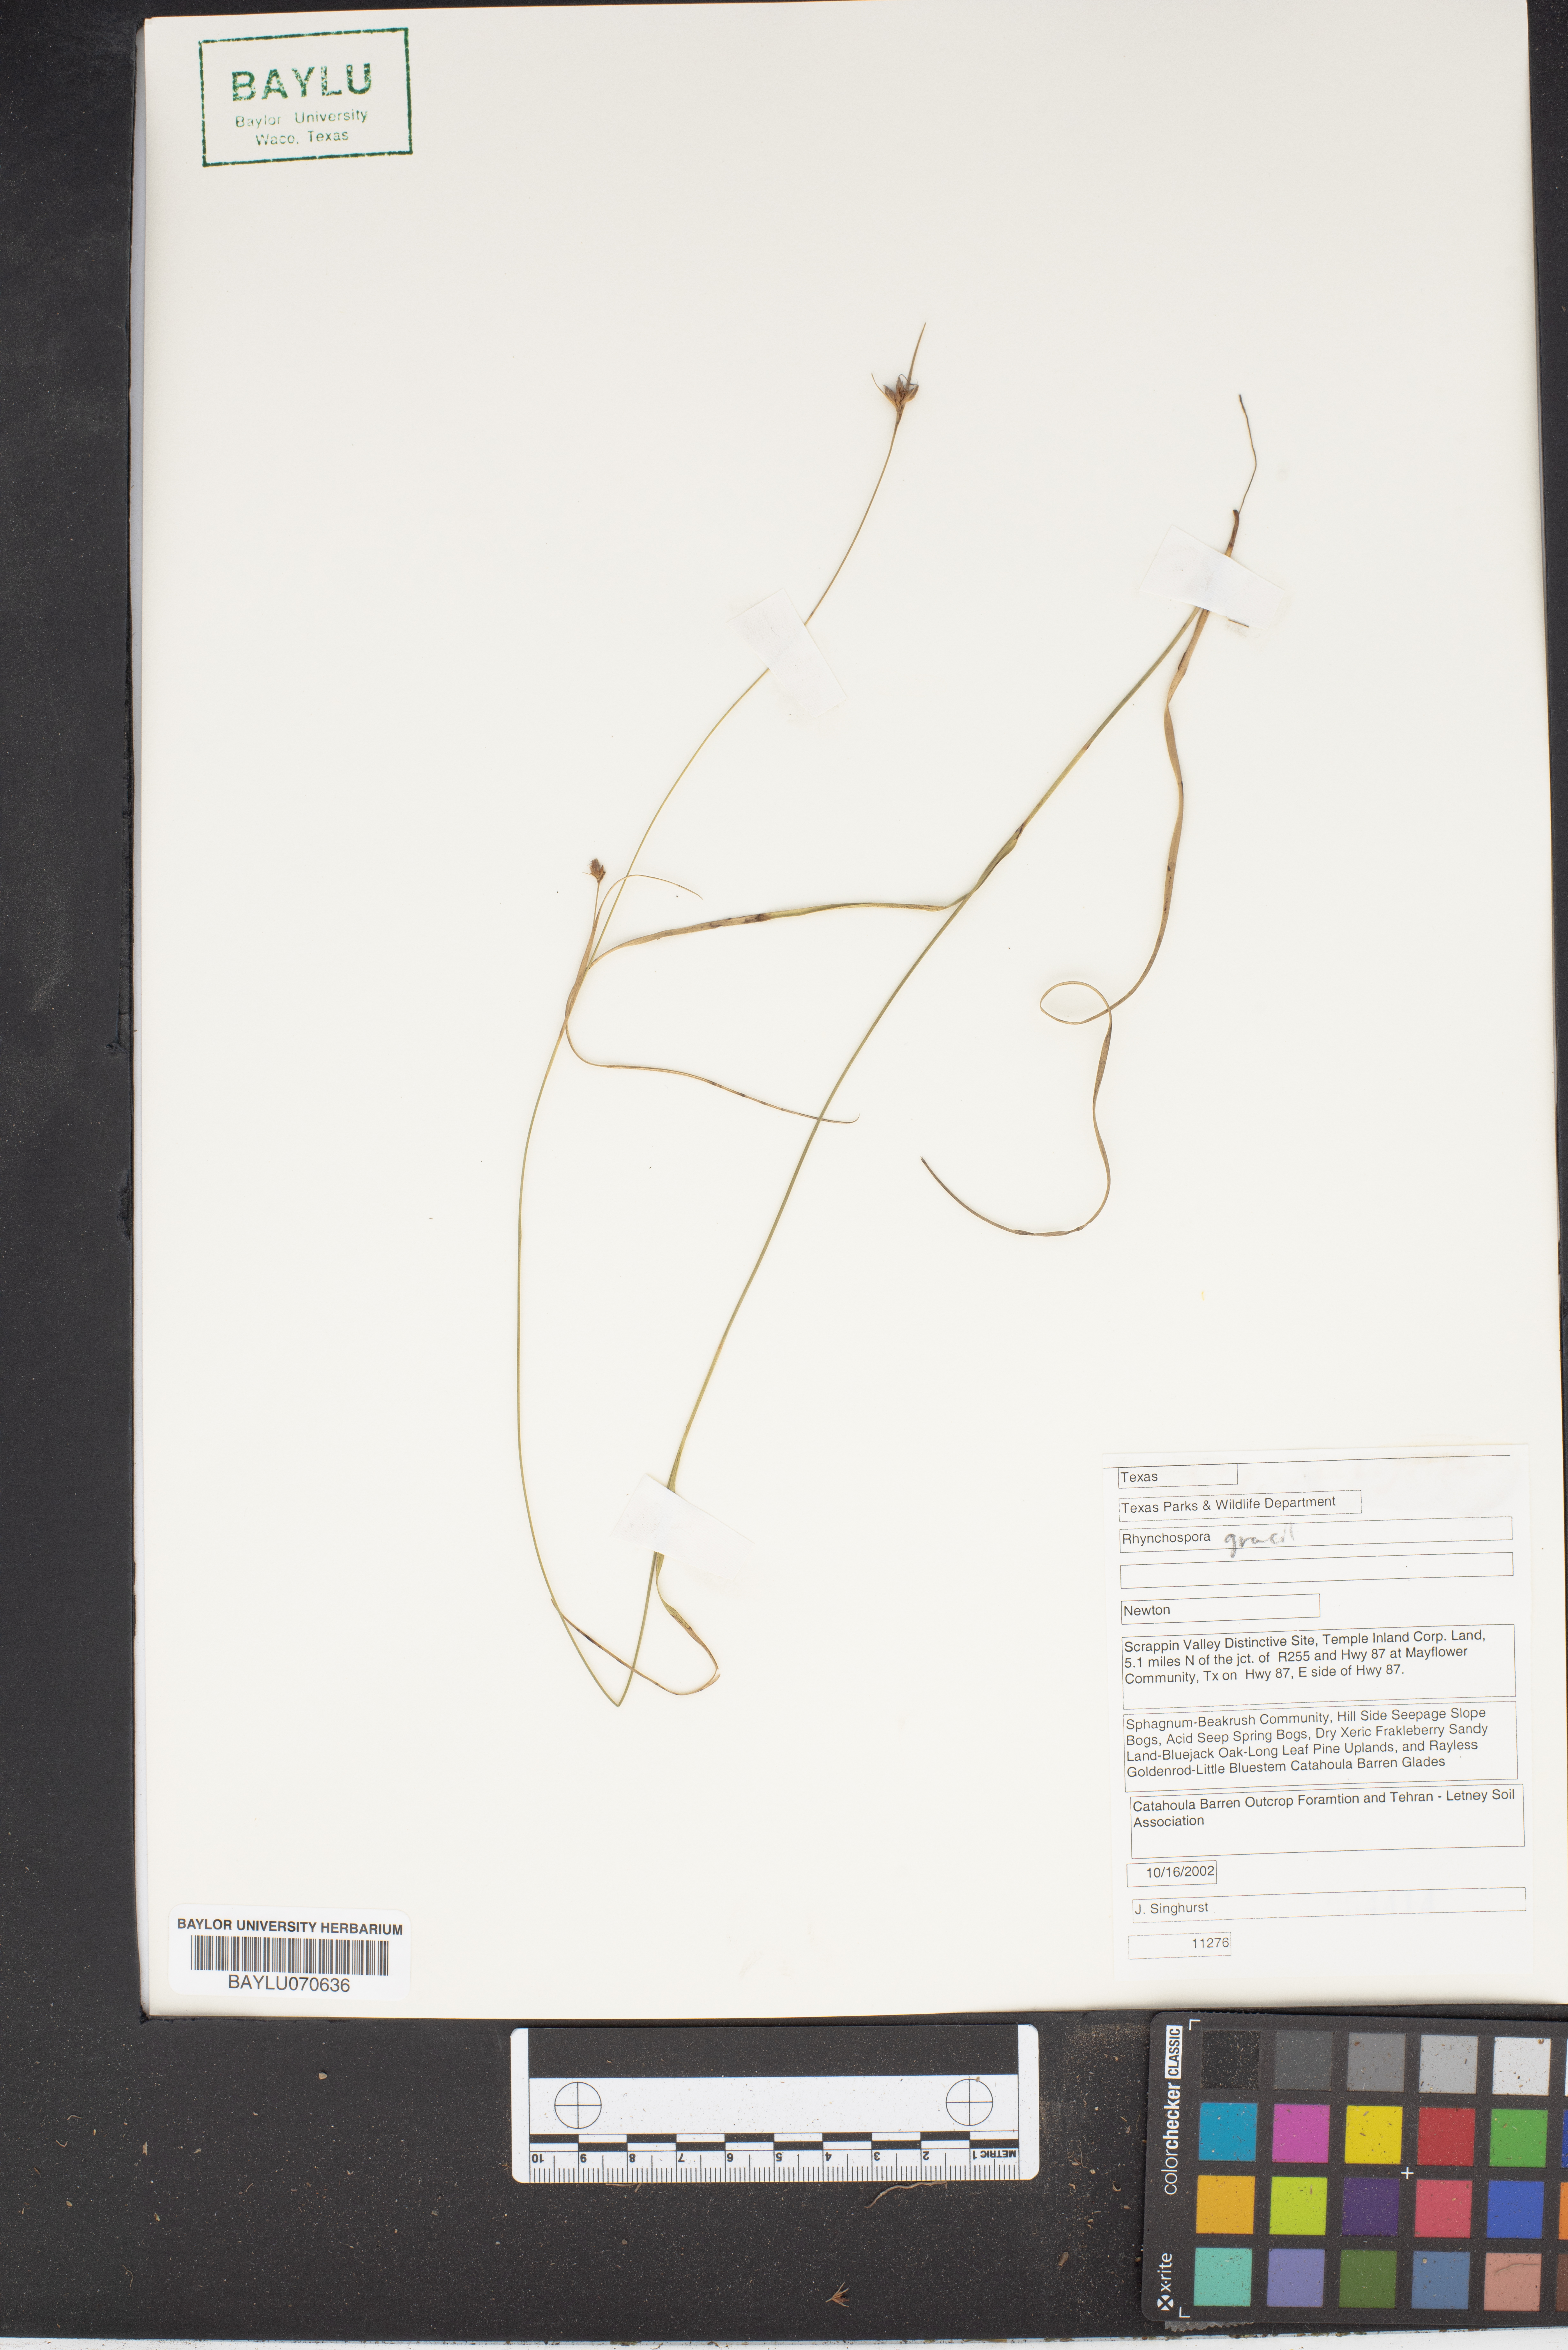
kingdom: Plantae
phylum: Tracheophyta
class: Liliopsida
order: Poales
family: Cyperaceae
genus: Rhynchospora
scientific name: Rhynchospora gracilenta
